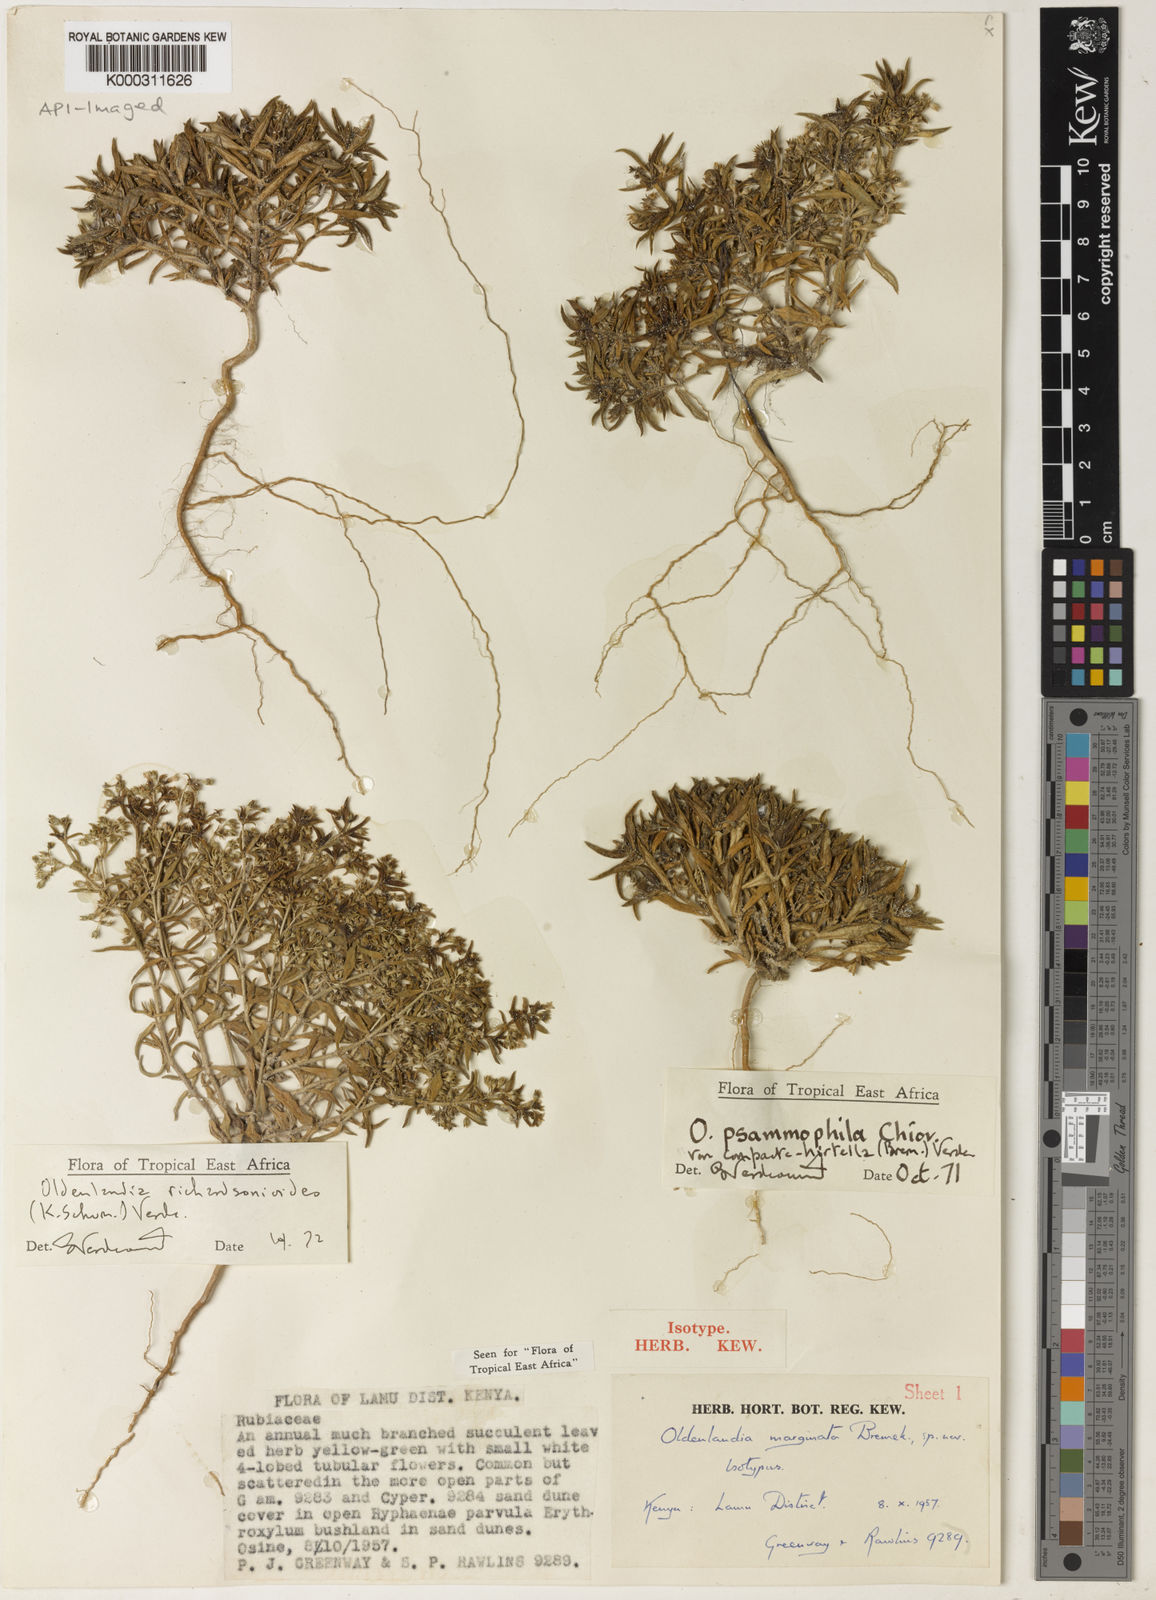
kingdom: Plantae
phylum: Tracheophyta
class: Magnoliopsida
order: Gentianales
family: Rubiaceae
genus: Oldenlandia
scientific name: Oldenlandia richardsonioides
